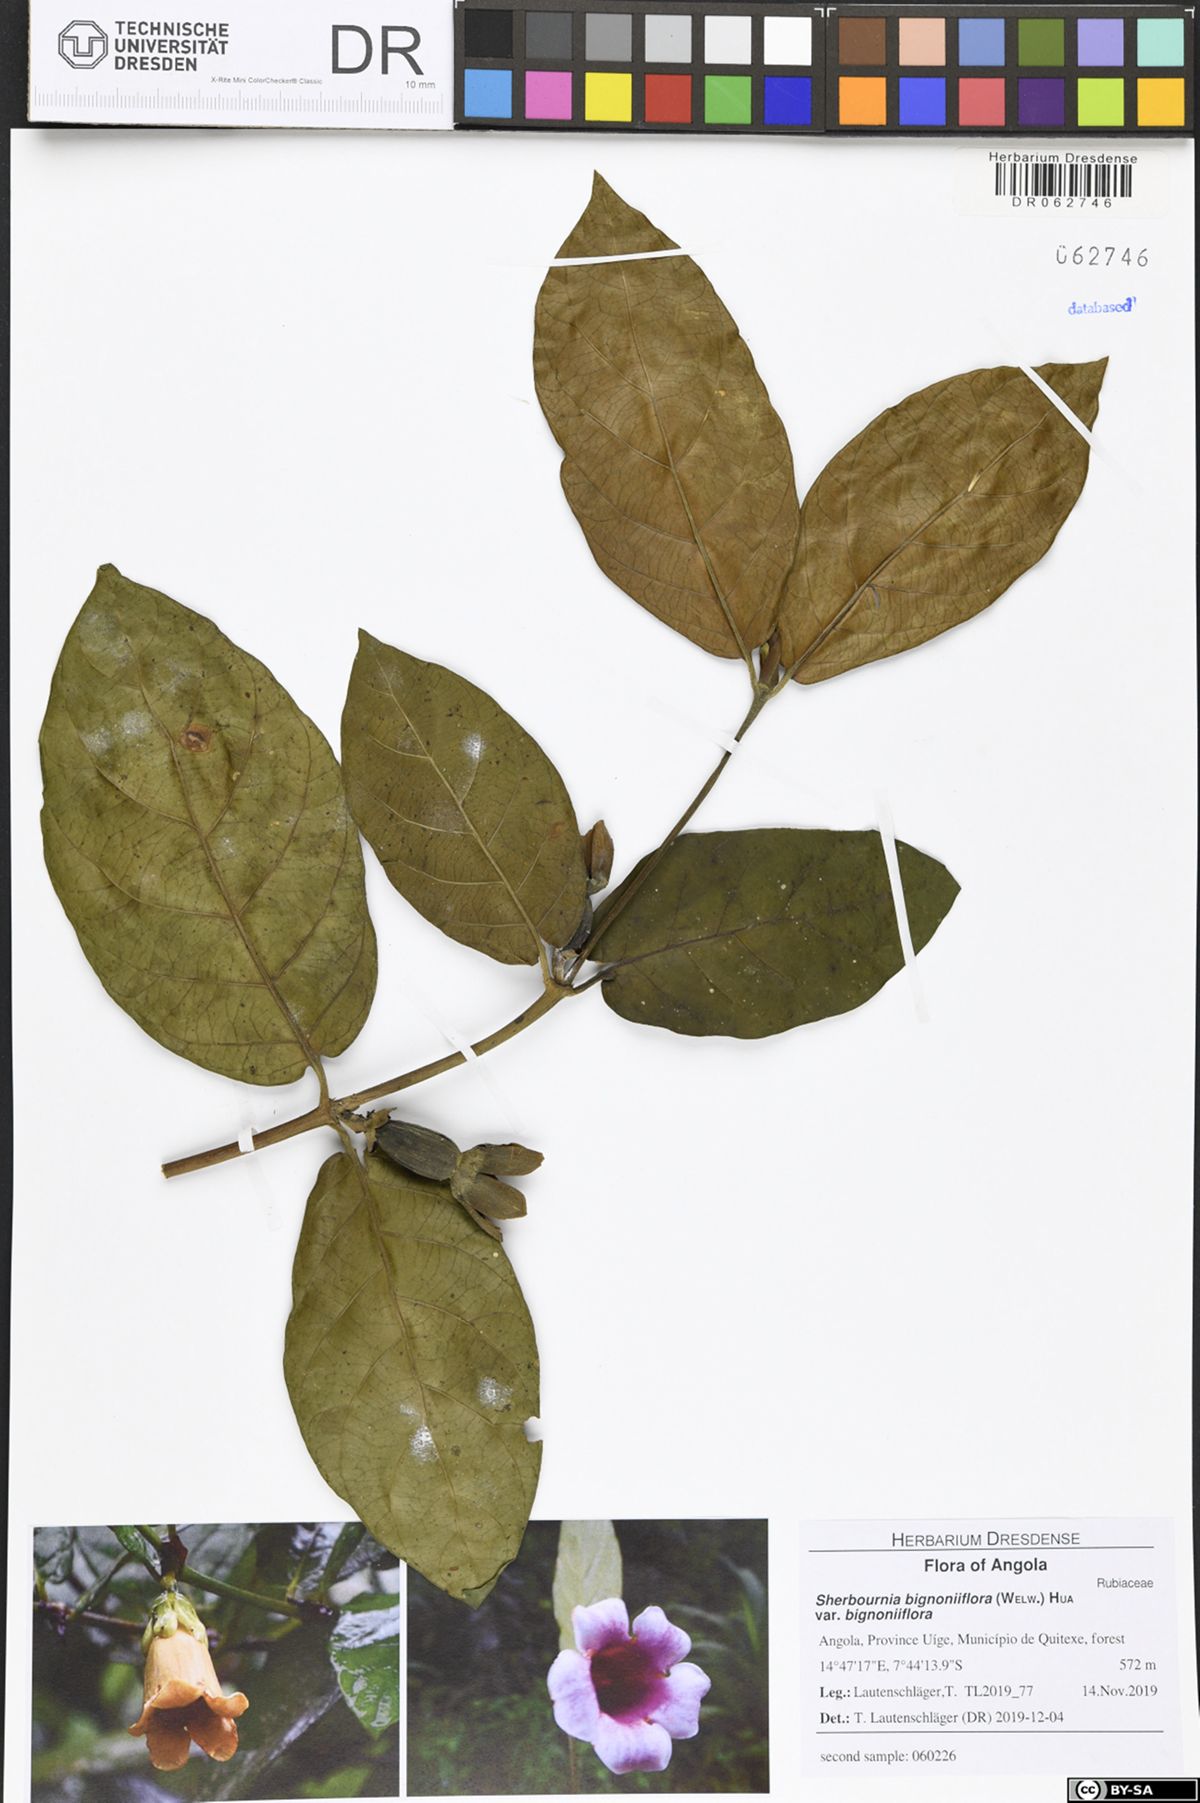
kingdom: Plantae
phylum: Tracheophyta
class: Magnoliopsida
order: Gentianales
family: Rubiaceae
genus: Sherbournia
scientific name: Sherbournia bignoniiflora
